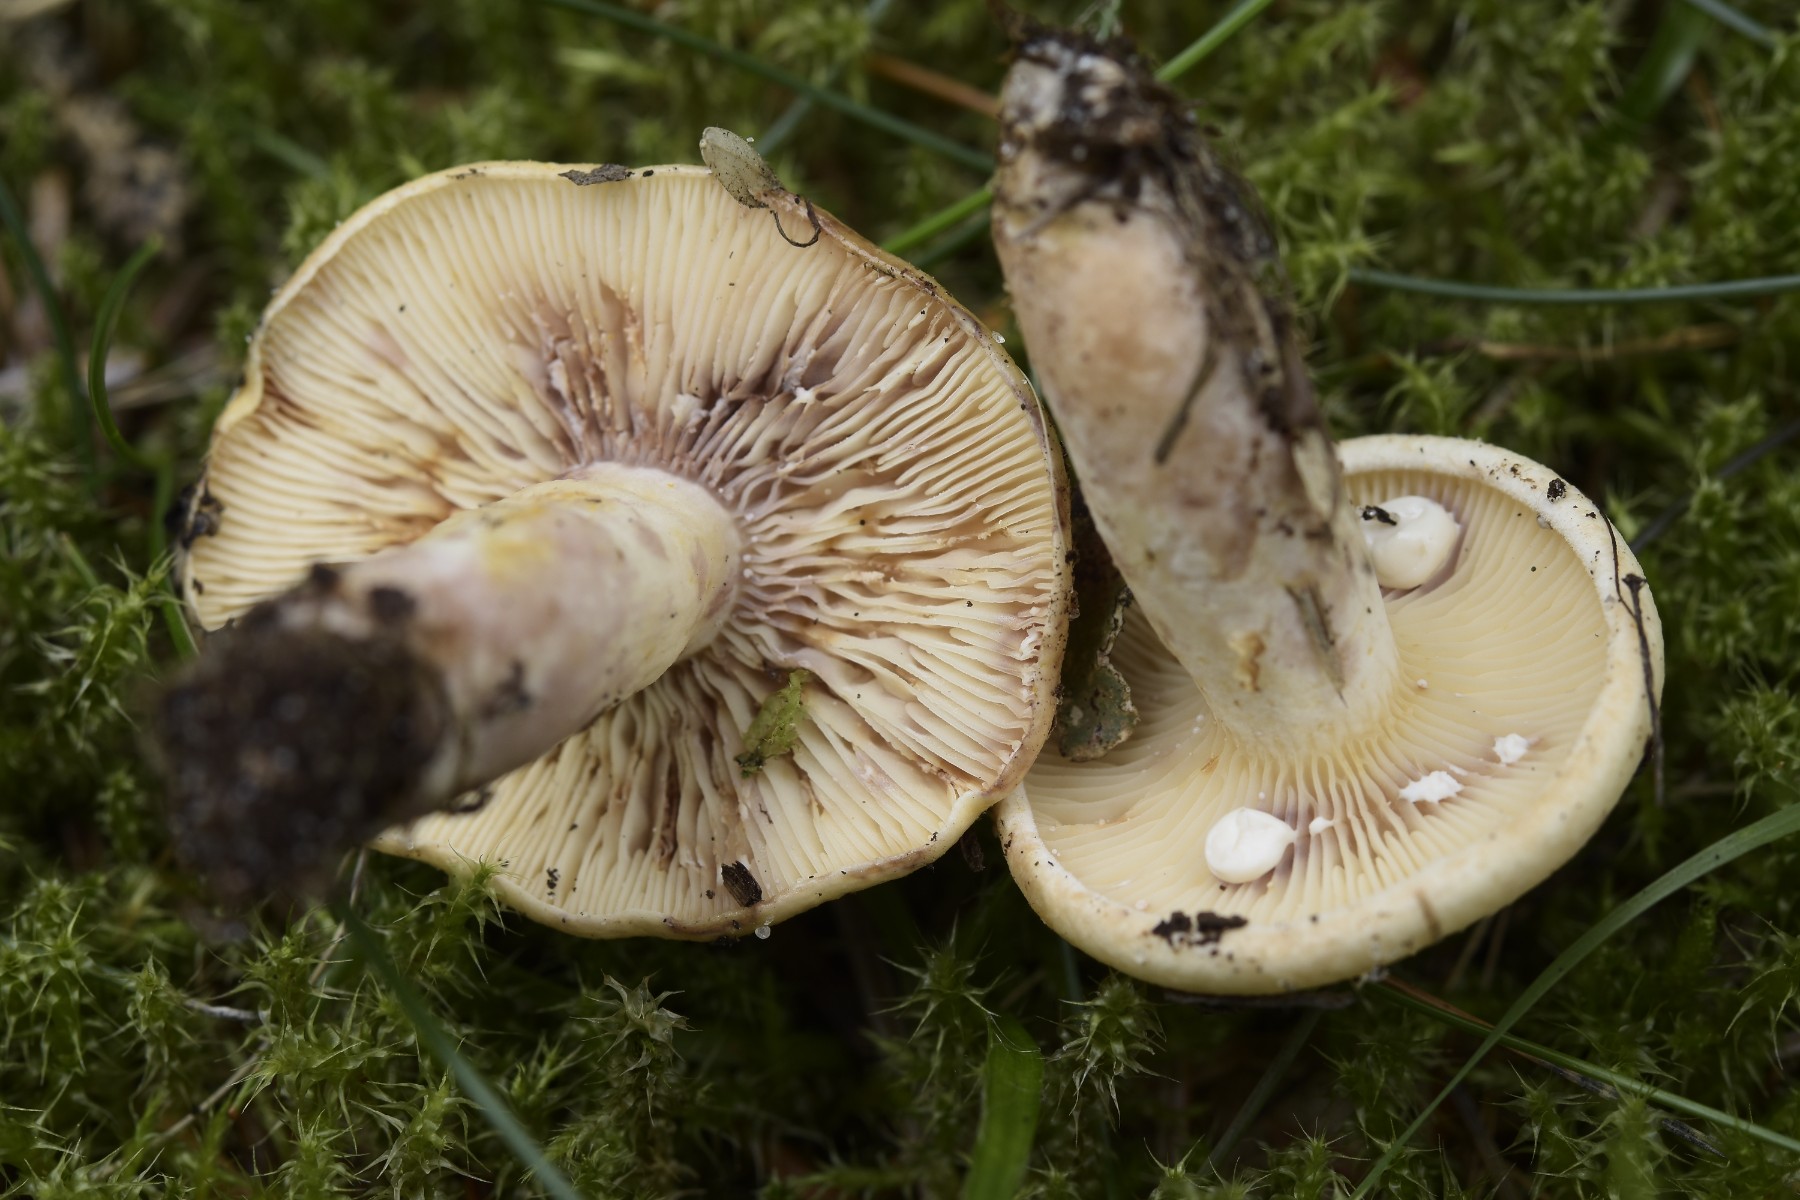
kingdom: Fungi
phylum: Basidiomycota
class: Agaricomycetes
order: Russulales
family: Russulaceae
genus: Lactarius
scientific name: Lactarius aspideus
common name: pile-mælkehat
